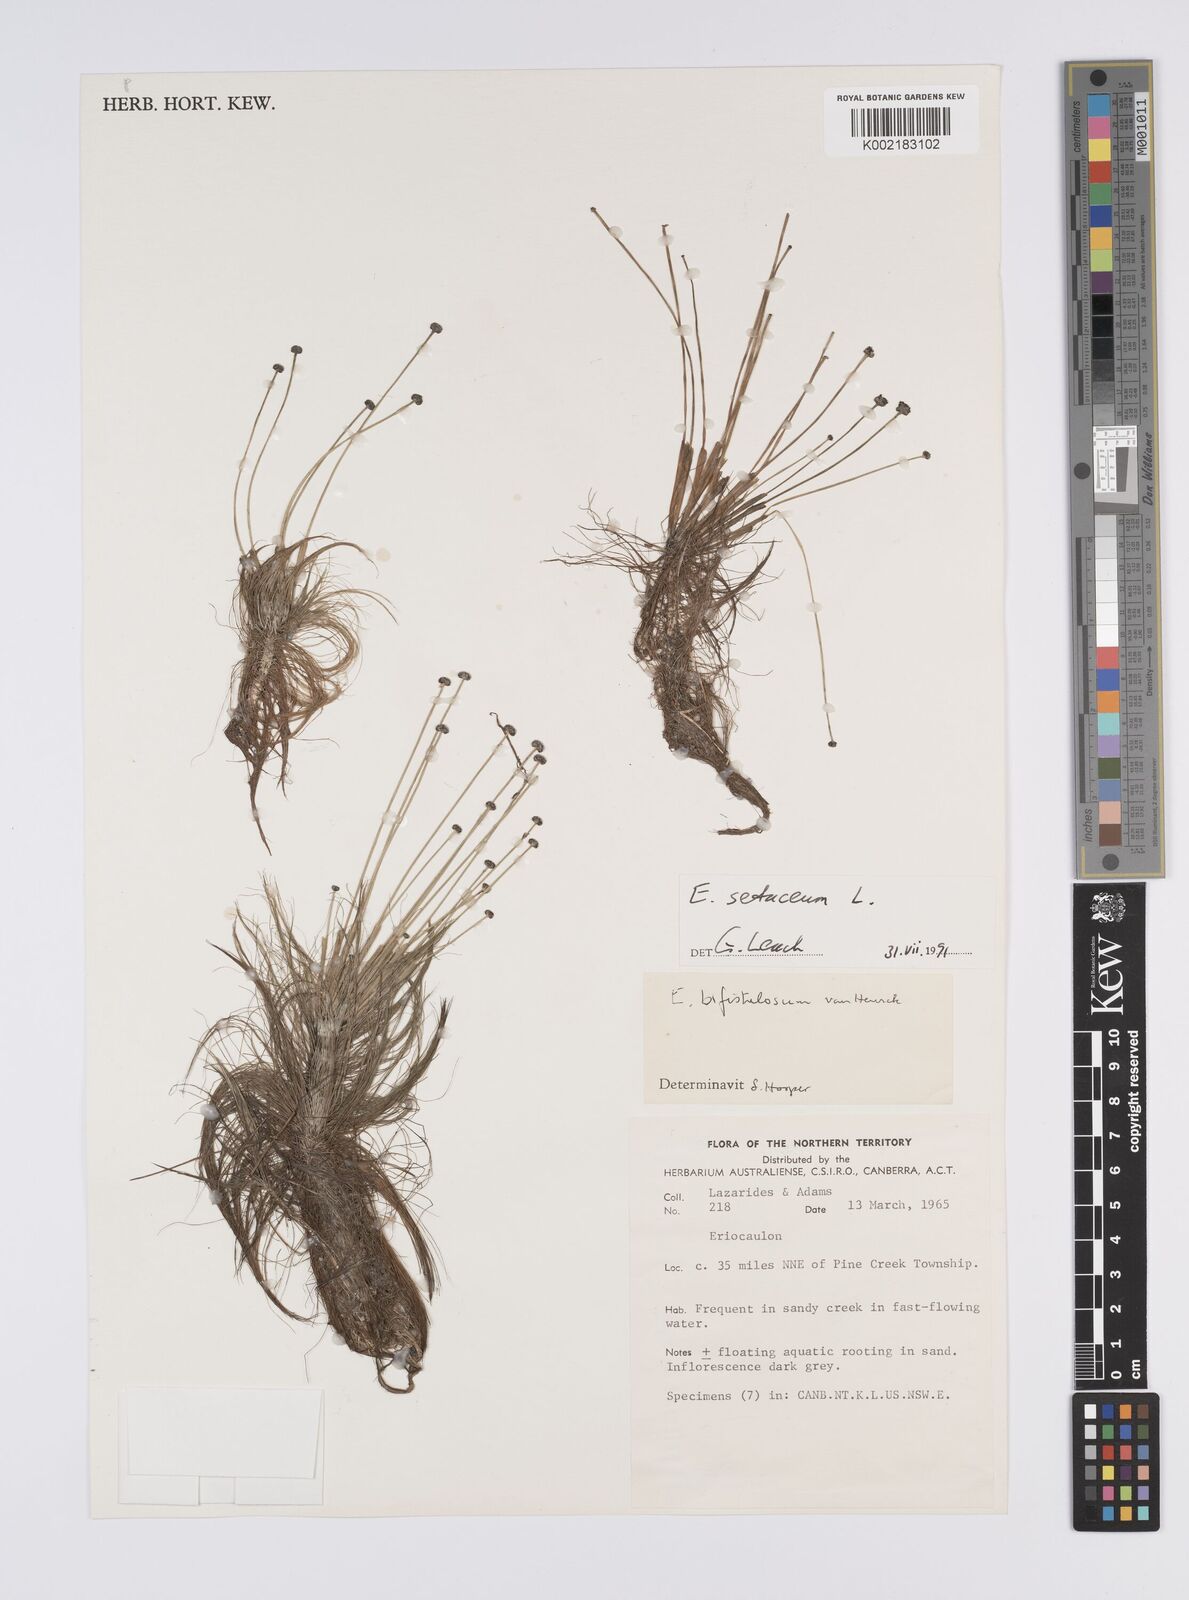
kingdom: Plantae
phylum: Tracheophyta
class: Liliopsida
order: Poales
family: Eriocaulaceae
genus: Eriocaulon
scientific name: Eriocaulon setaceum
